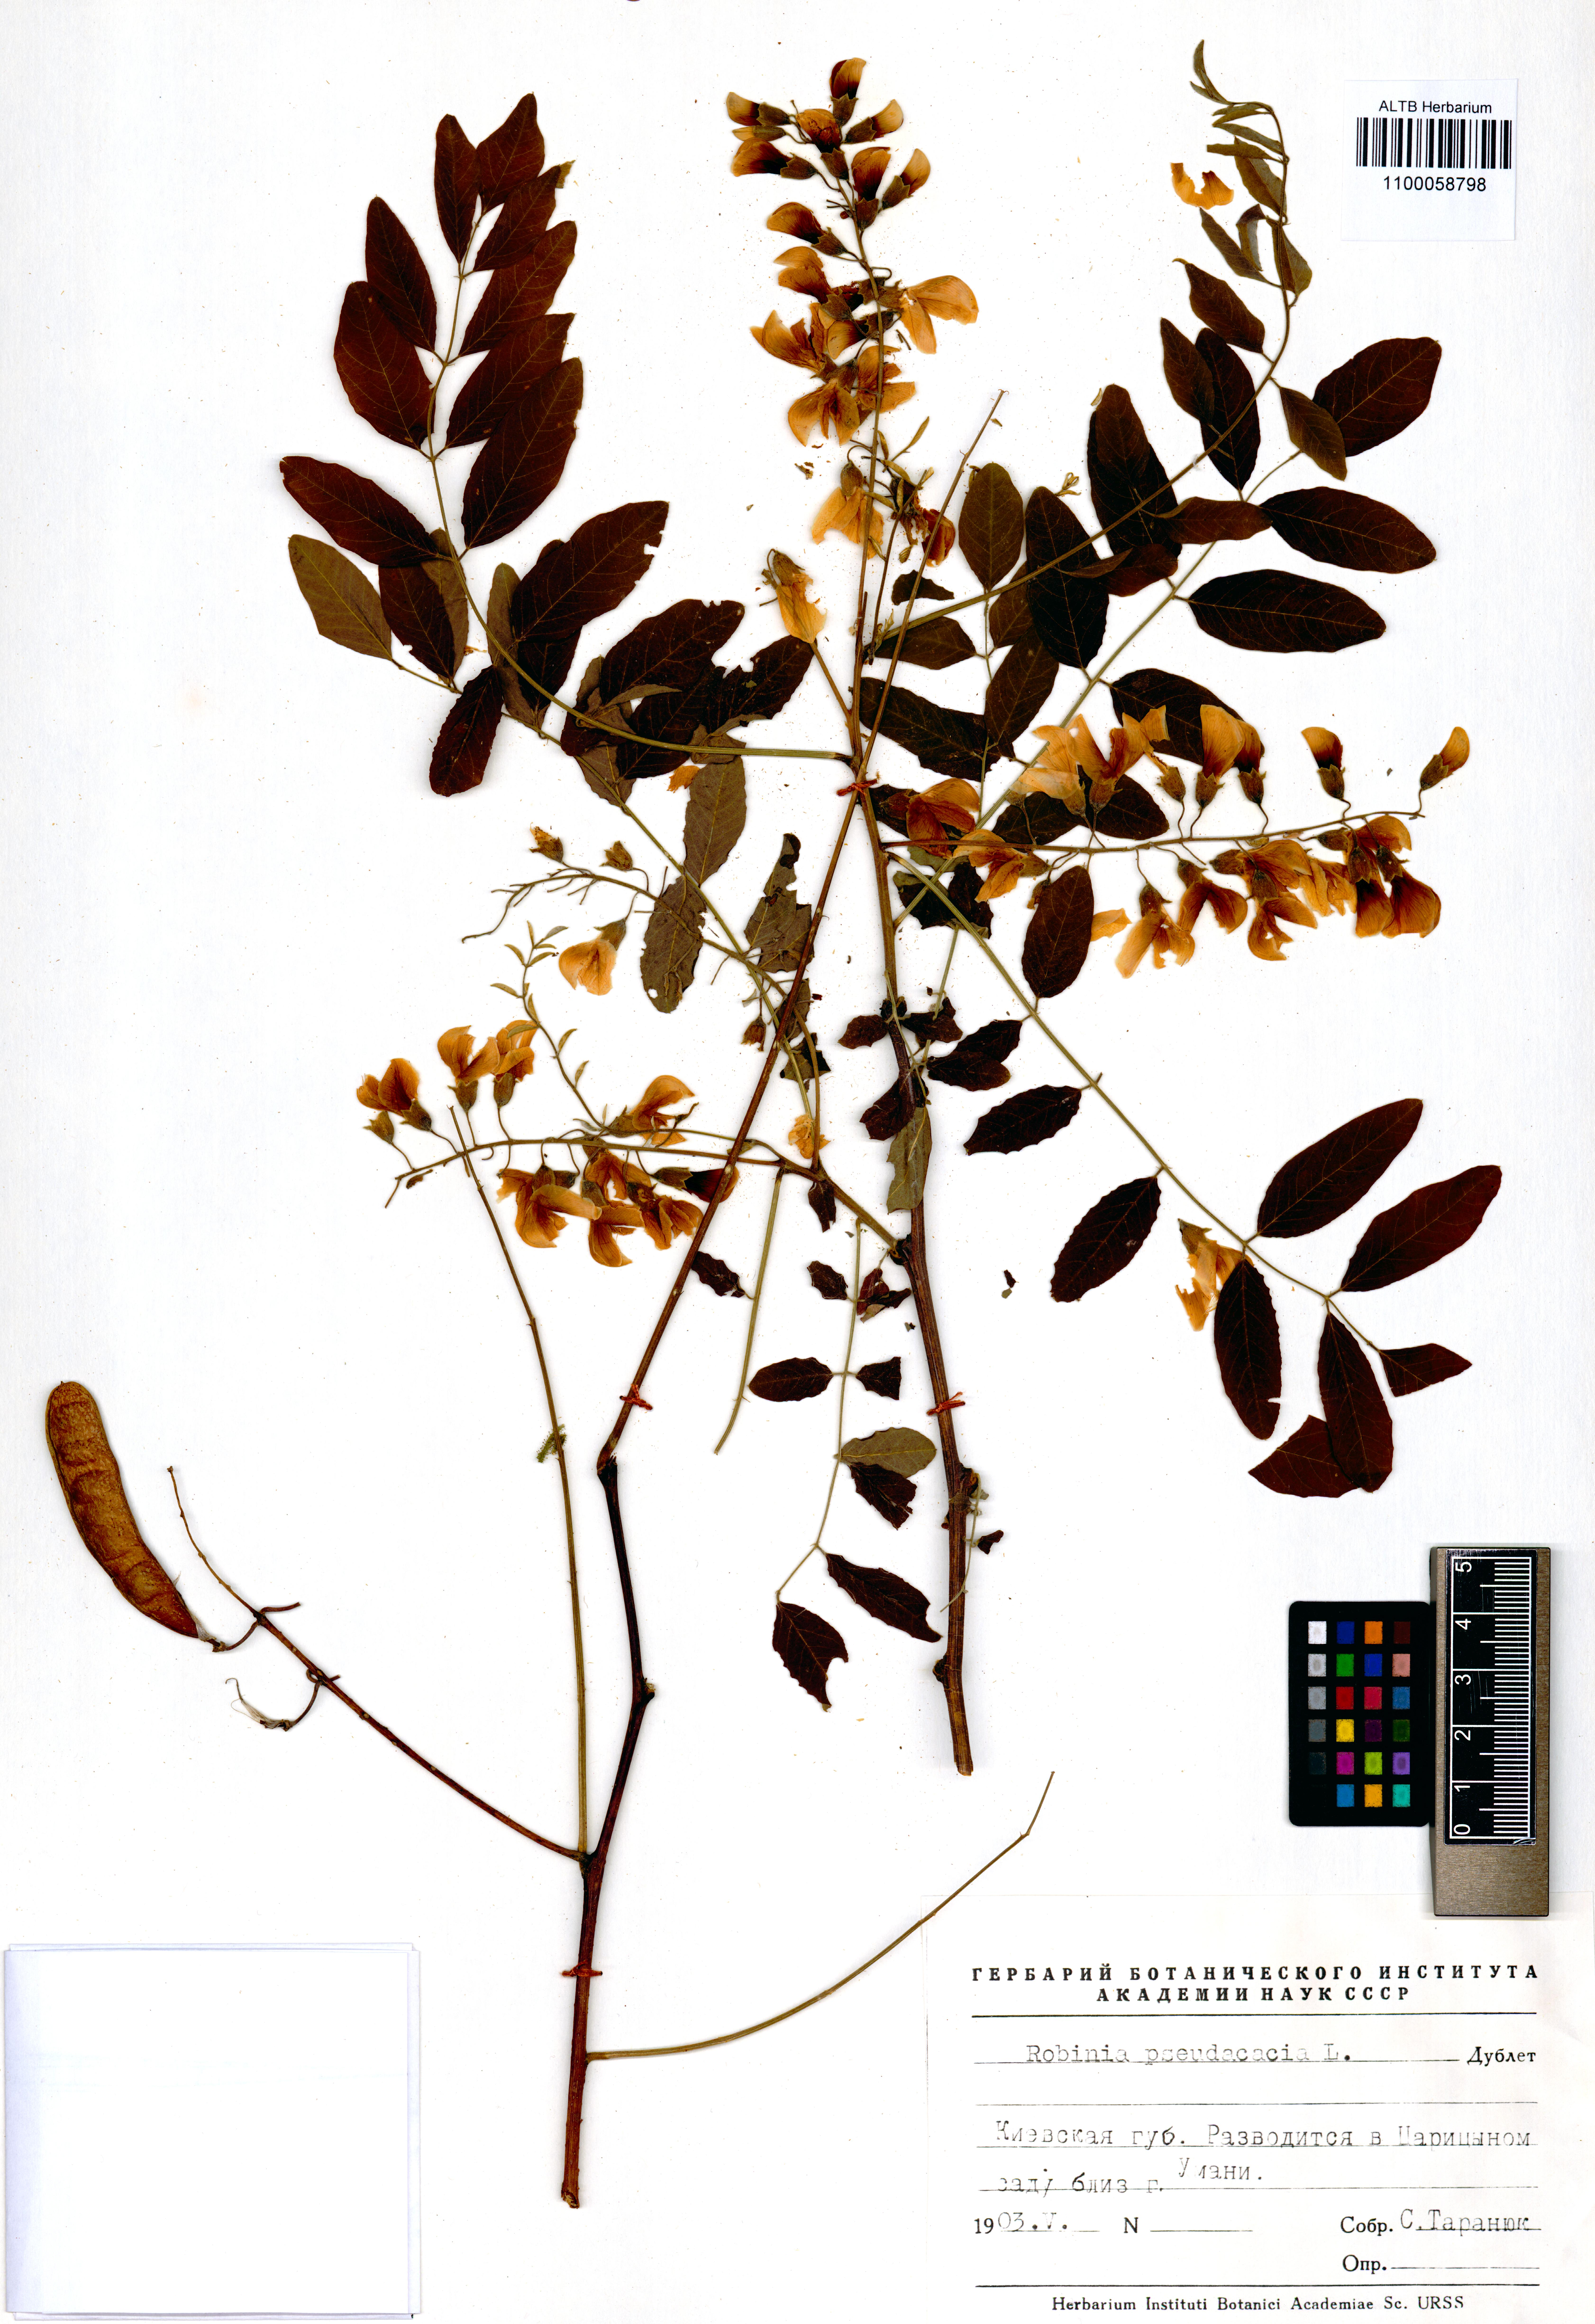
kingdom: Plantae
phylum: Tracheophyta
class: Magnoliopsida
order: Fabales
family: Fabaceae
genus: Robinia
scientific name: Robinia pseudoacacia
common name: Black locust
